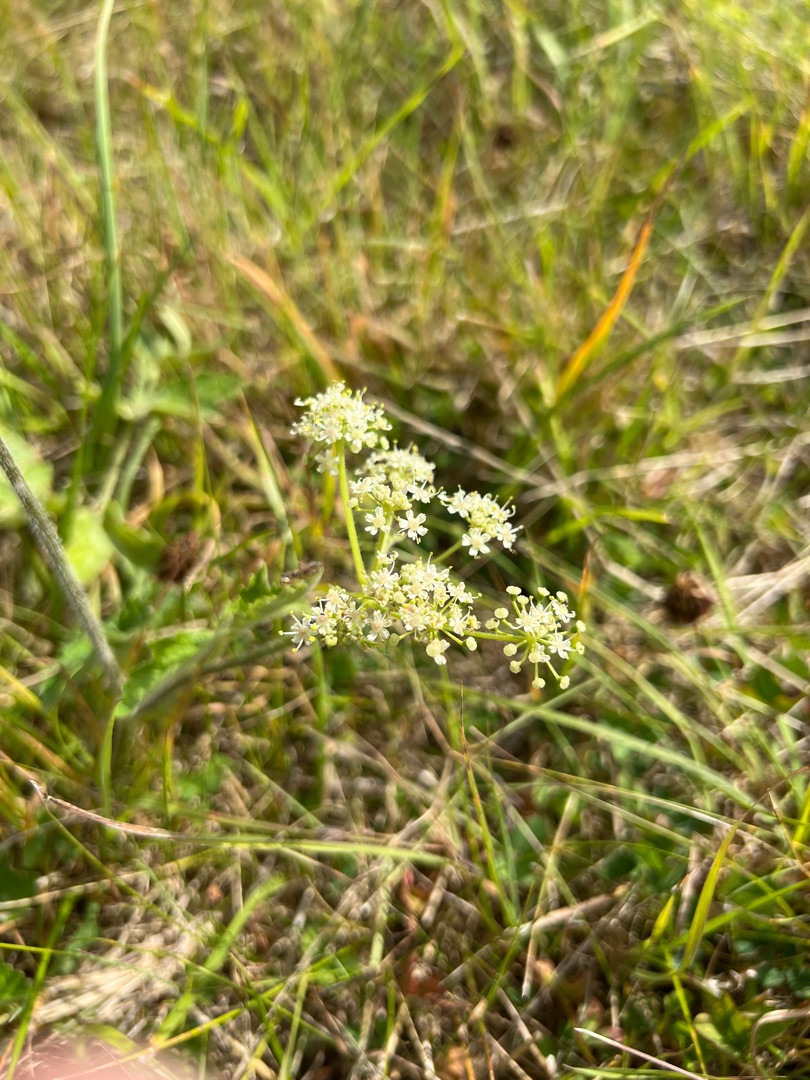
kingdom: Plantae
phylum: Tracheophyta
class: Magnoliopsida
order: Apiales
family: Apiaceae
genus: Heracleum
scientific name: Heracleum sphondylium
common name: Almindelig bjørneklo
